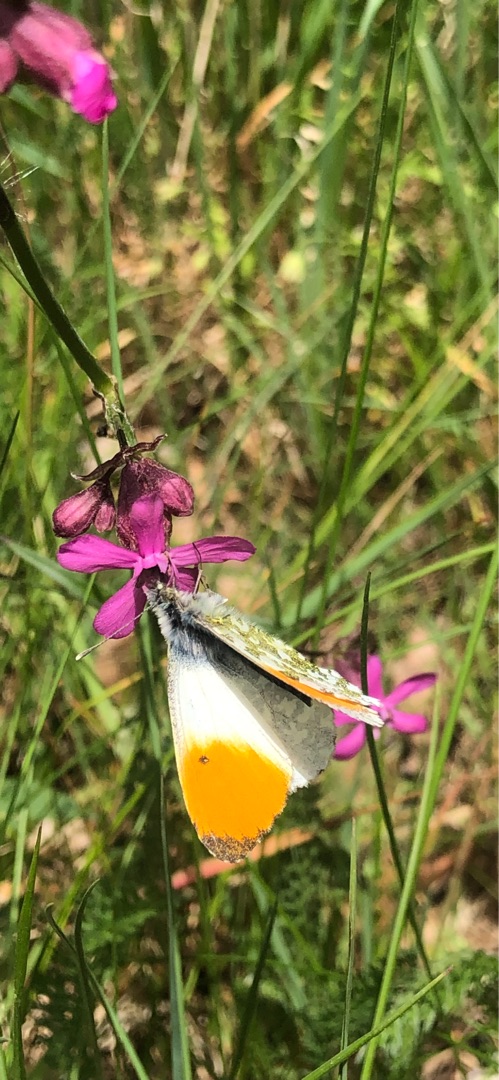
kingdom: Animalia
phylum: Arthropoda
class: Insecta
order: Lepidoptera
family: Pieridae
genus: Anthocharis
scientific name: Anthocharis cardamines
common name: Aurora
